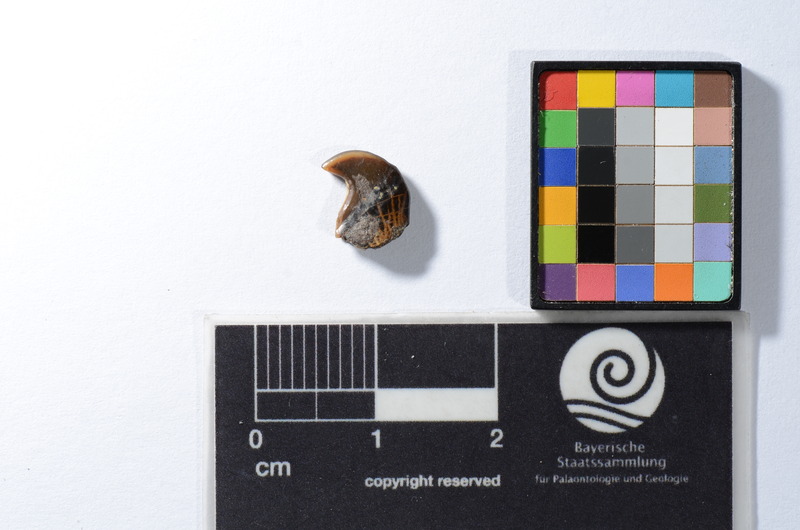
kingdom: Animalia
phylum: Chordata
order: Tetraodontiformes
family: Trigonodontidae
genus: Stephanodus
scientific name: Stephanodus Ancistrodon lybicus
